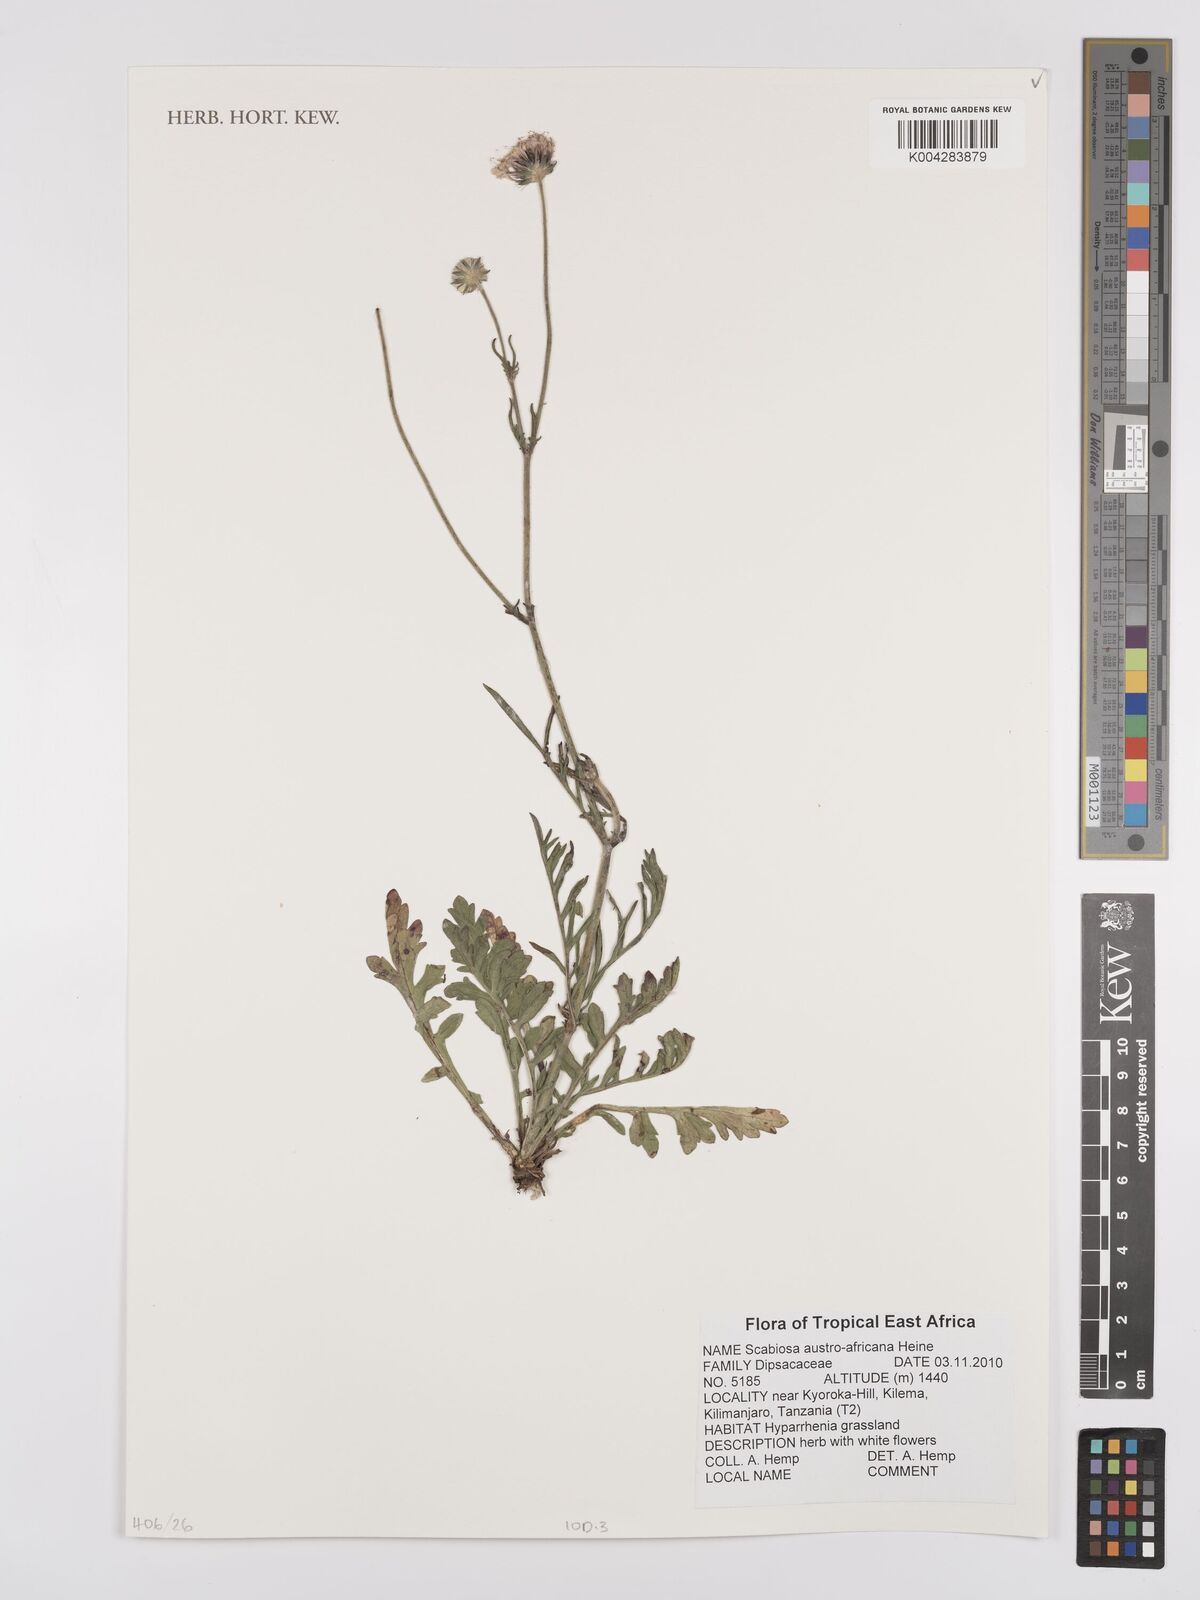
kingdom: Plantae
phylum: Tracheophyta
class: Magnoliopsida
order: Dipsacales
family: Caprifoliaceae
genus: Scabiosa
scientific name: Scabiosa austroafricana
